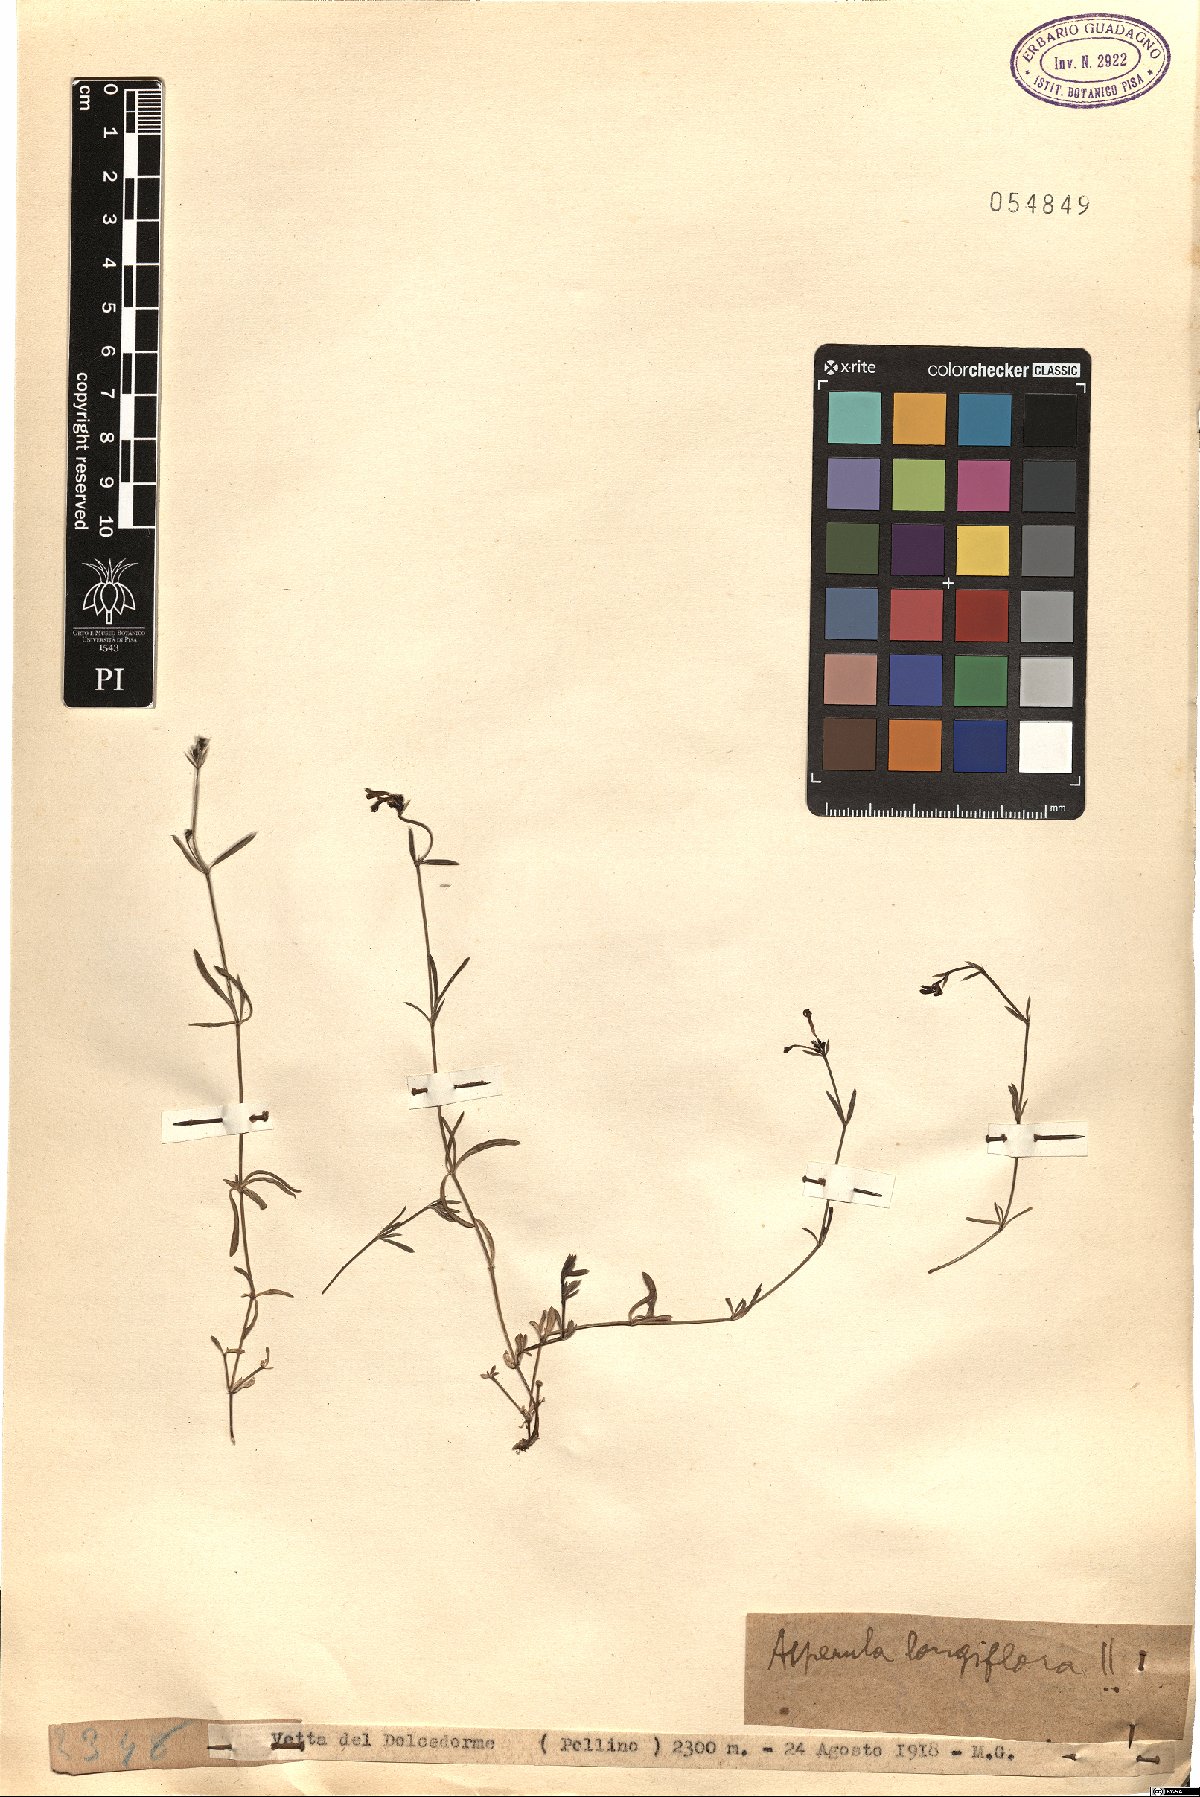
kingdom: Plantae
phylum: Tracheophyta
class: Magnoliopsida
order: Gentianales
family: Rubiaceae
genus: Cynanchica
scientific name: Cynanchica aristata
